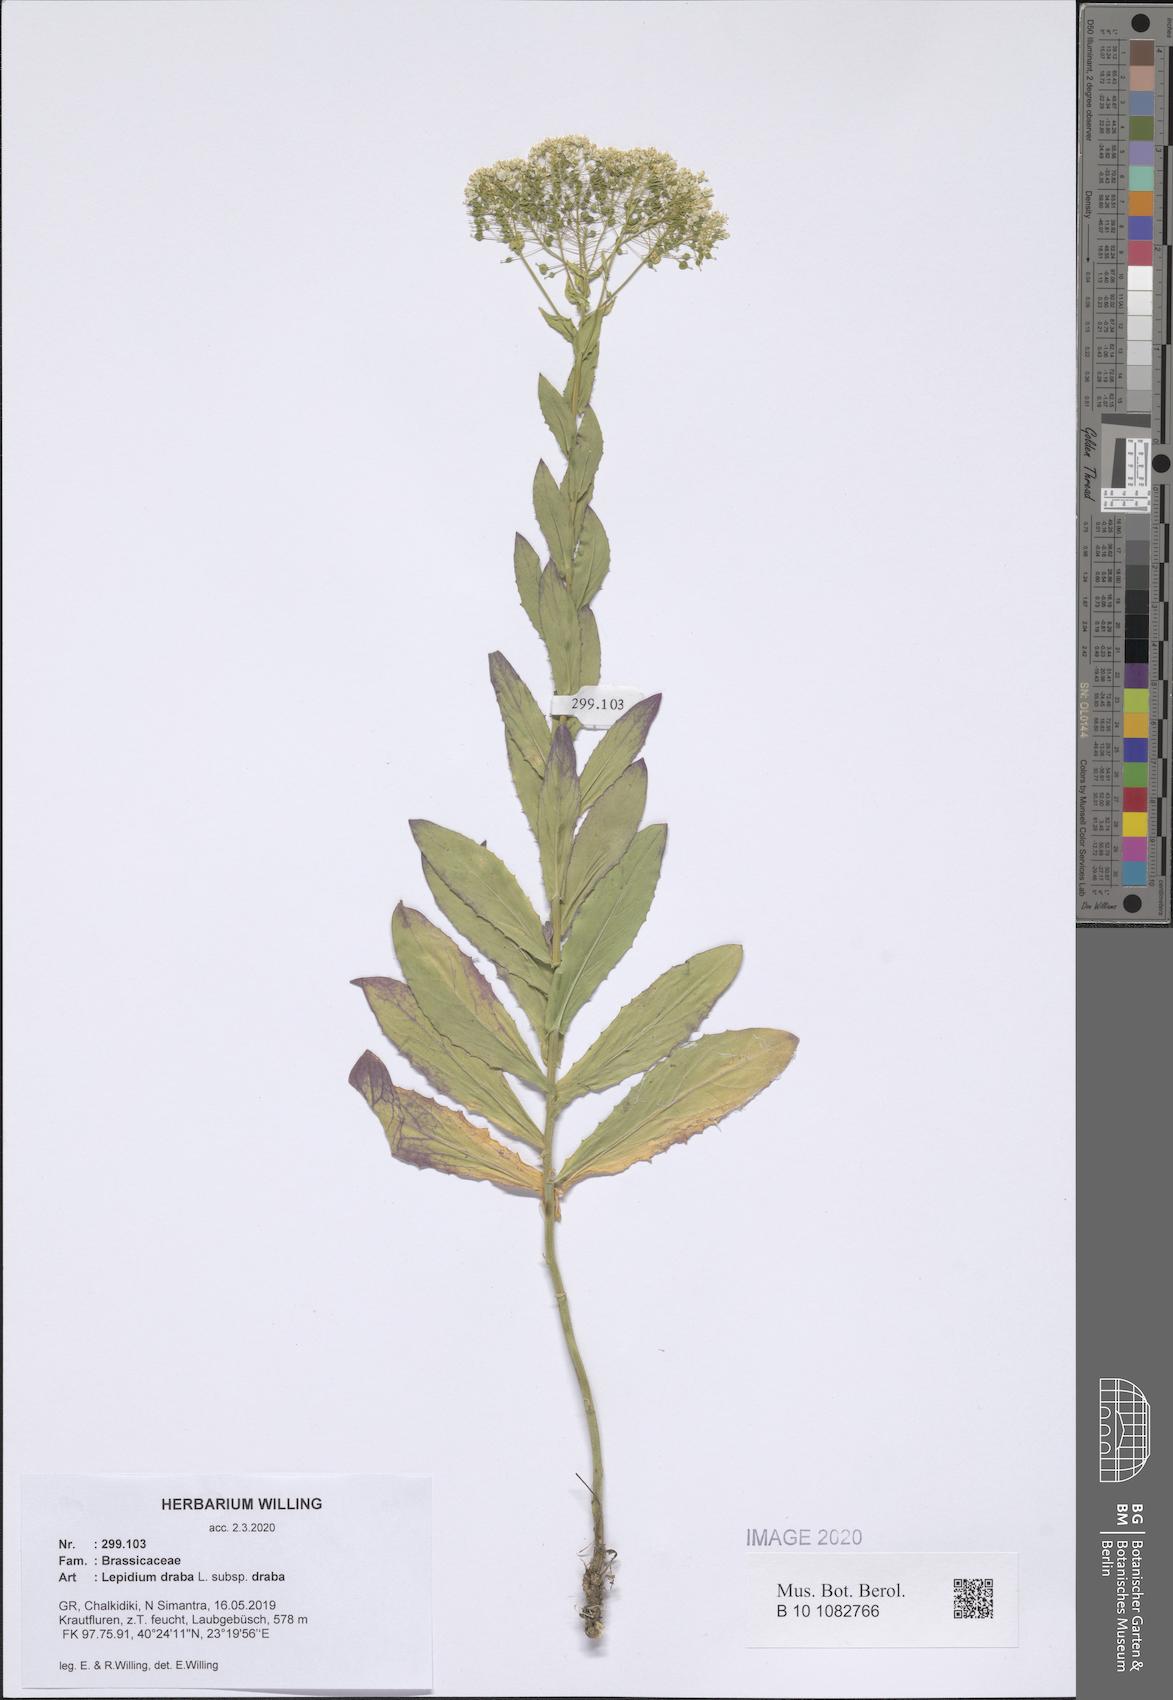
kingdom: Plantae
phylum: Tracheophyta
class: Magnoliopsida
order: Brassicales
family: Brassicaceae
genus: Lepidium
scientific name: Lepidium draba
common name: Hoary cress
